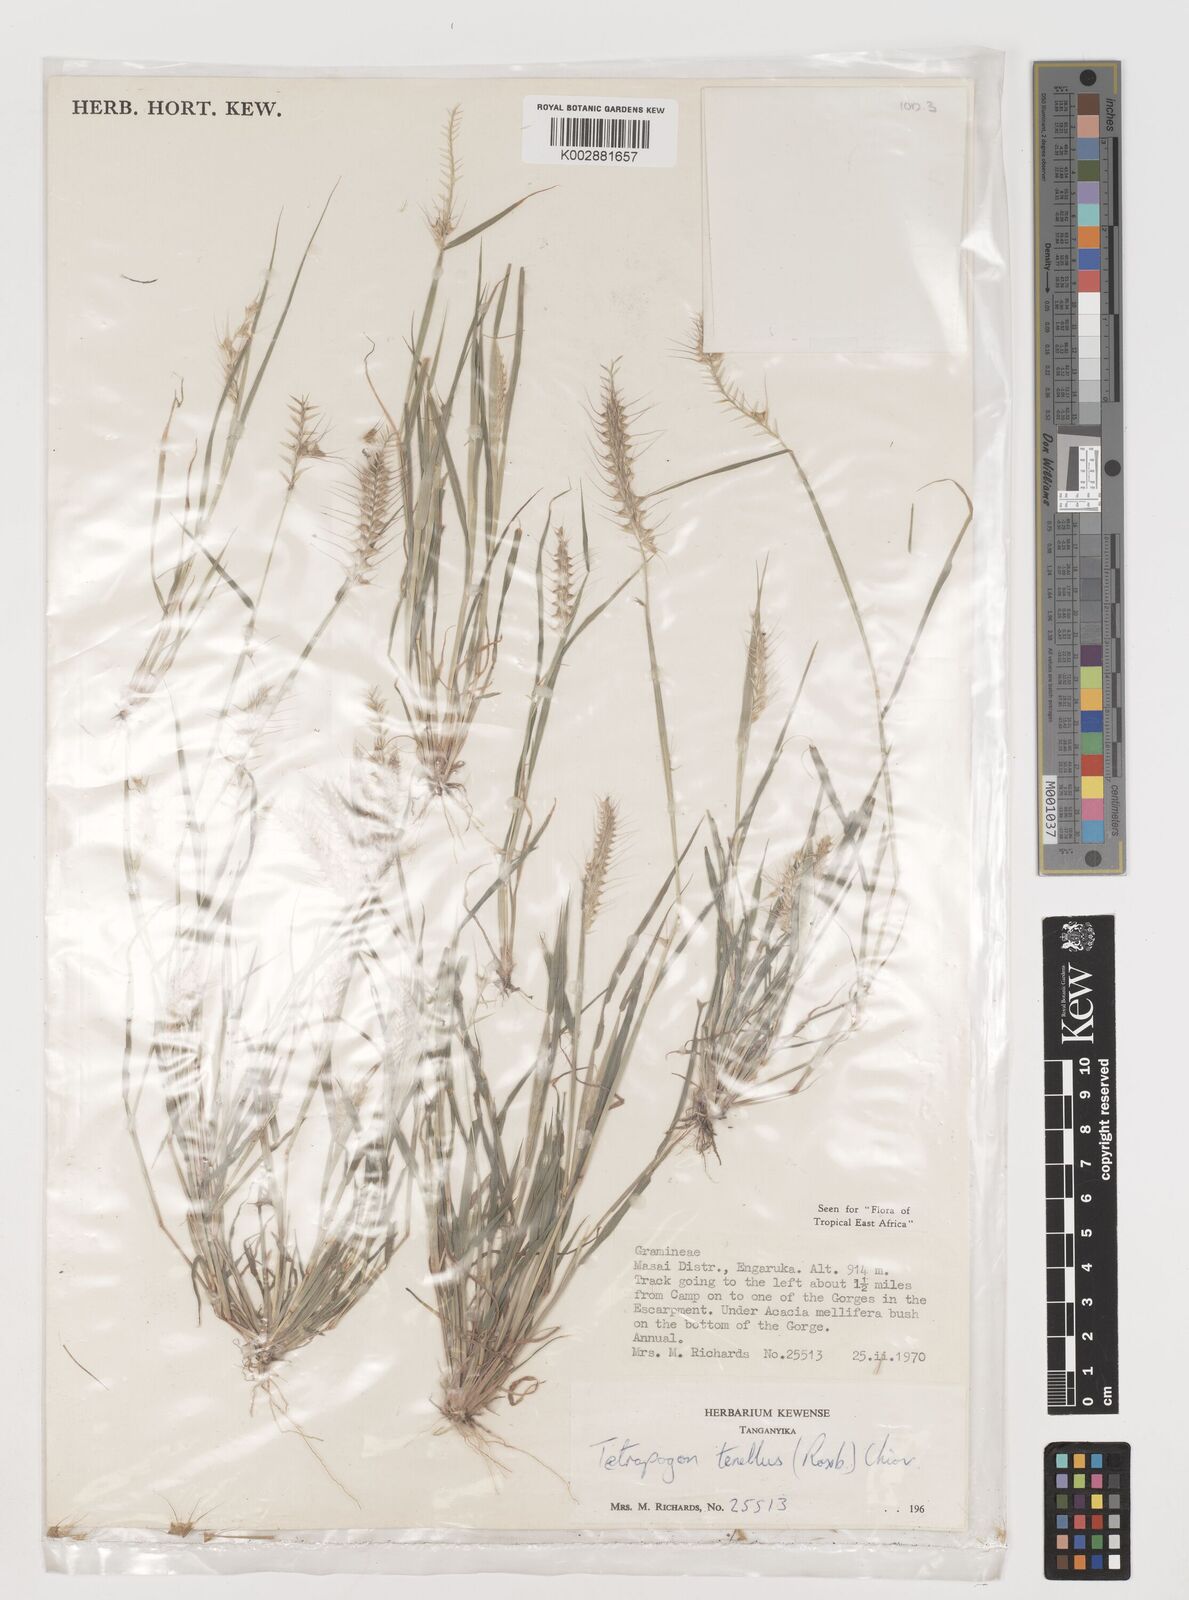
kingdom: Plantae
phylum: Tracheophyta
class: Liliopsida
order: Poales
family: Poaceae
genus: Tetrapogon
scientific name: Tetrapogon tenellus
